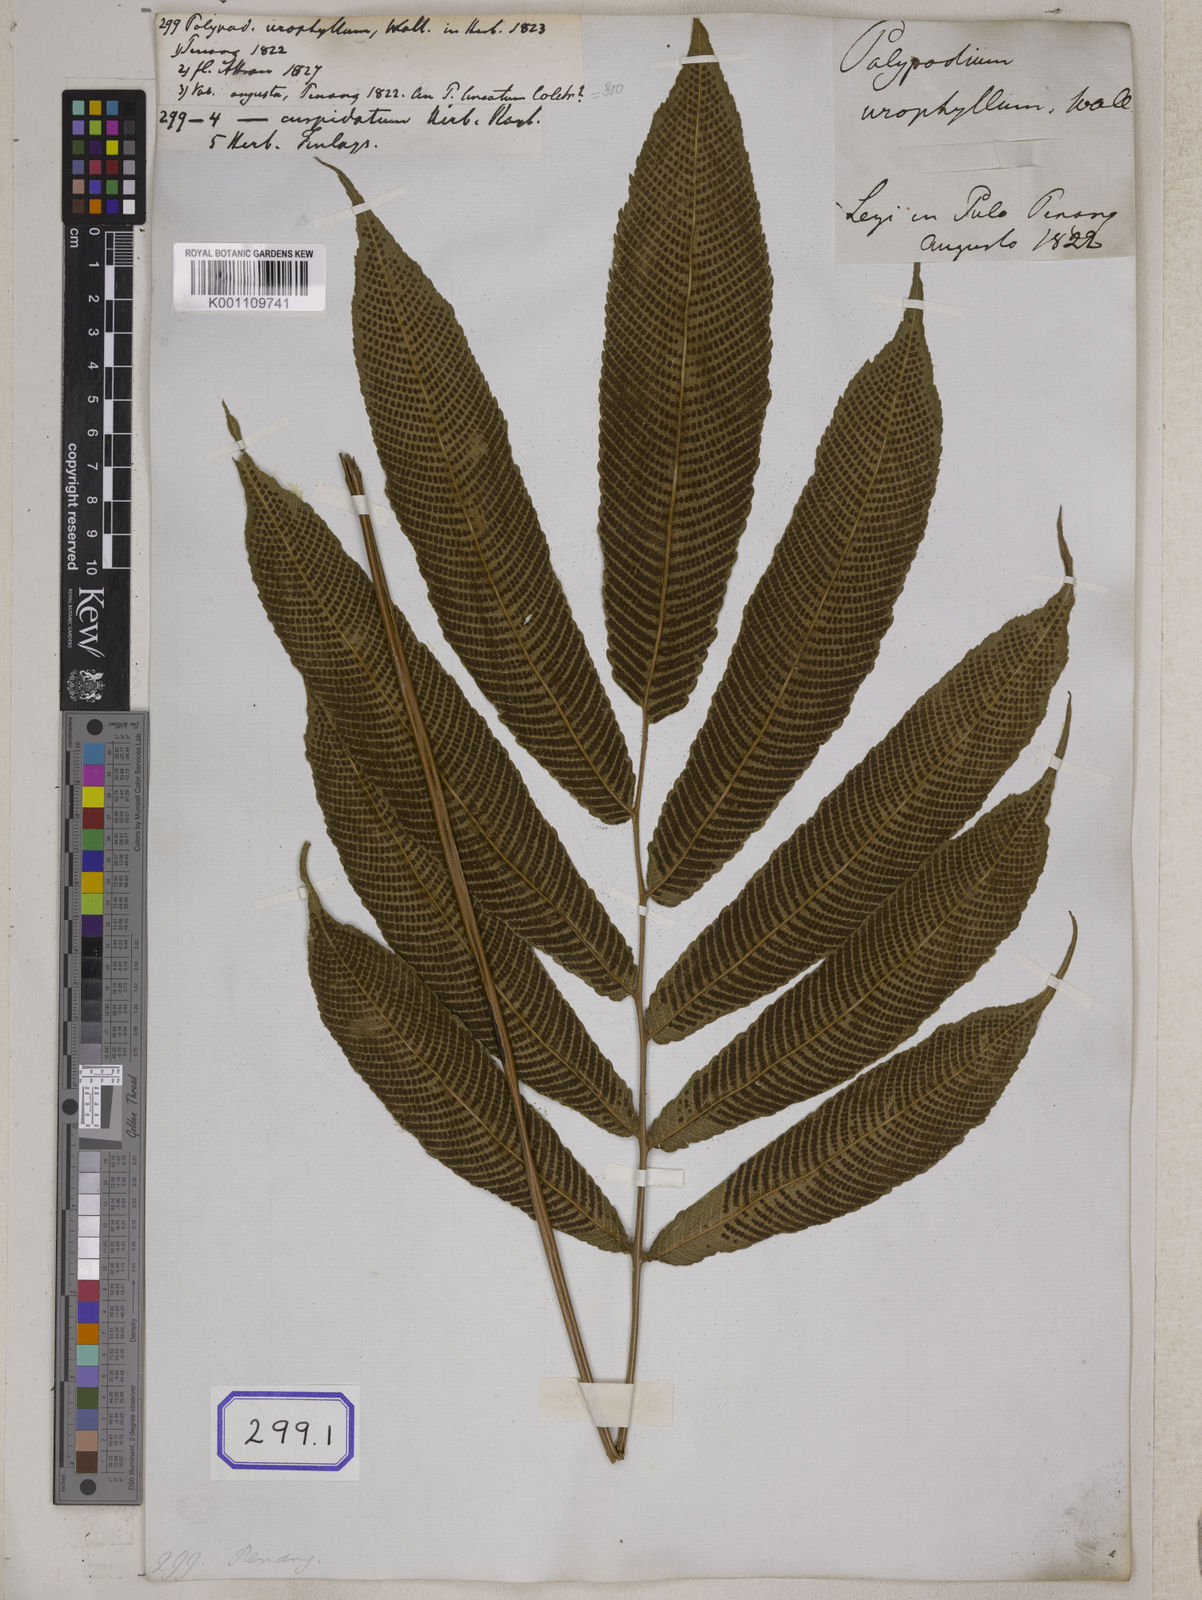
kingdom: Plantae
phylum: Tracheophyta
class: Polypodiopsida
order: Polypodiales
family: Thelypteridaceae
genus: Menisciopsis
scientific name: Menisciopsis penangiana
